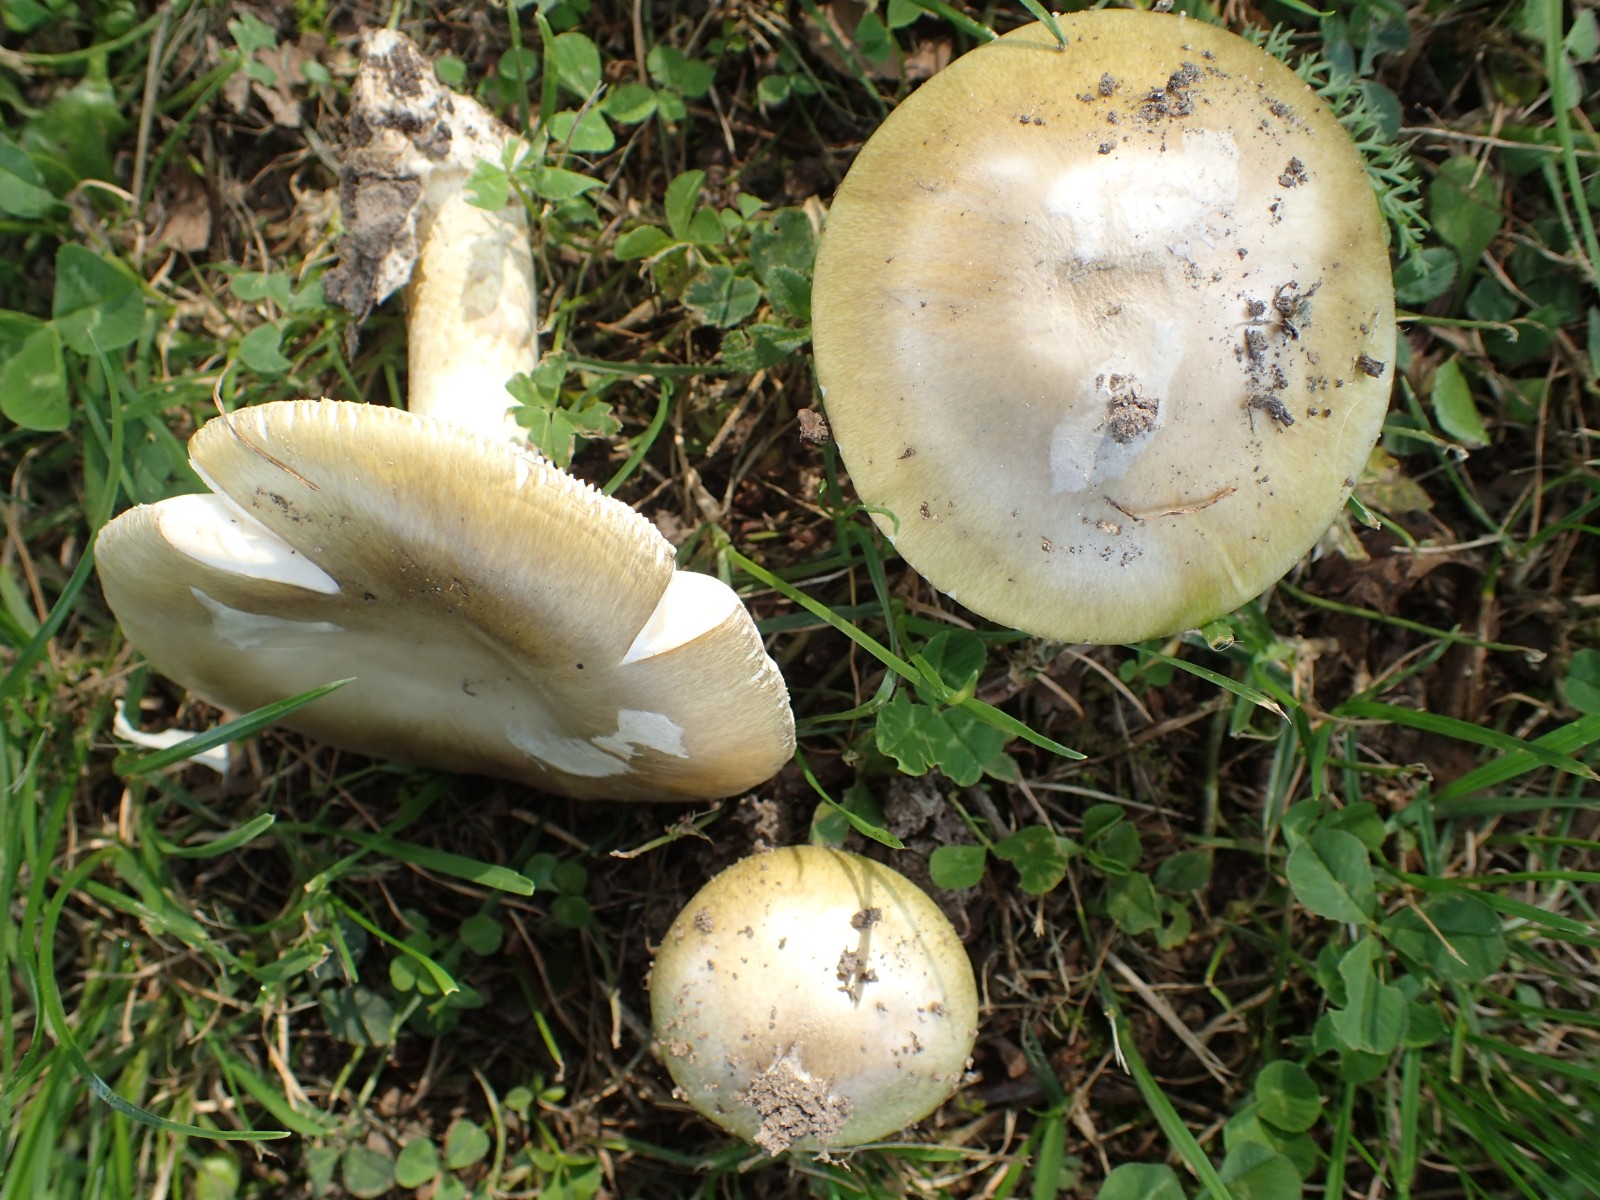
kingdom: Fungi
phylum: Basidiomycota
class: Agaricomycetes
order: Agaricales
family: Amanitaceae
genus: Amanita
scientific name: Amanita phalloides
